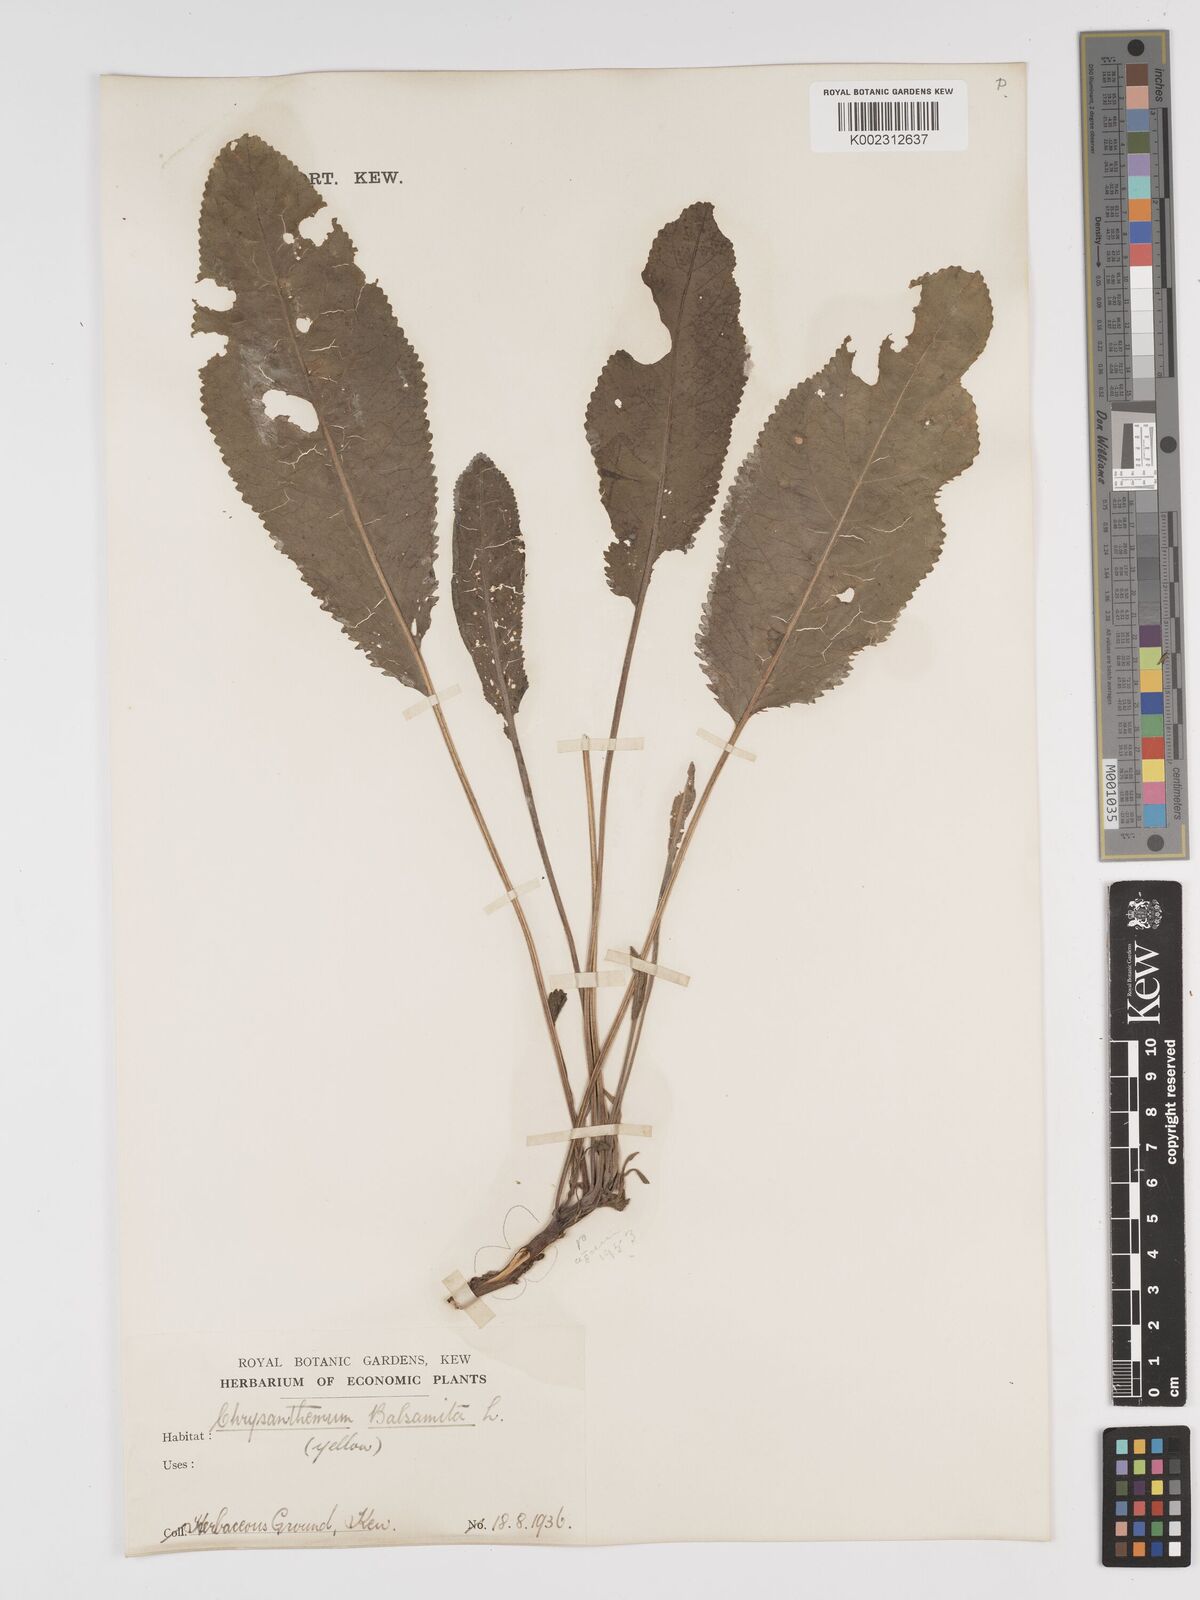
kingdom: Plantae
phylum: Tracheophyta
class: Magnoliopsida
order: Asterales
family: Asteraceae
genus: Tanacetum
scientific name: Tanacetum balsamita
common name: Costmary
